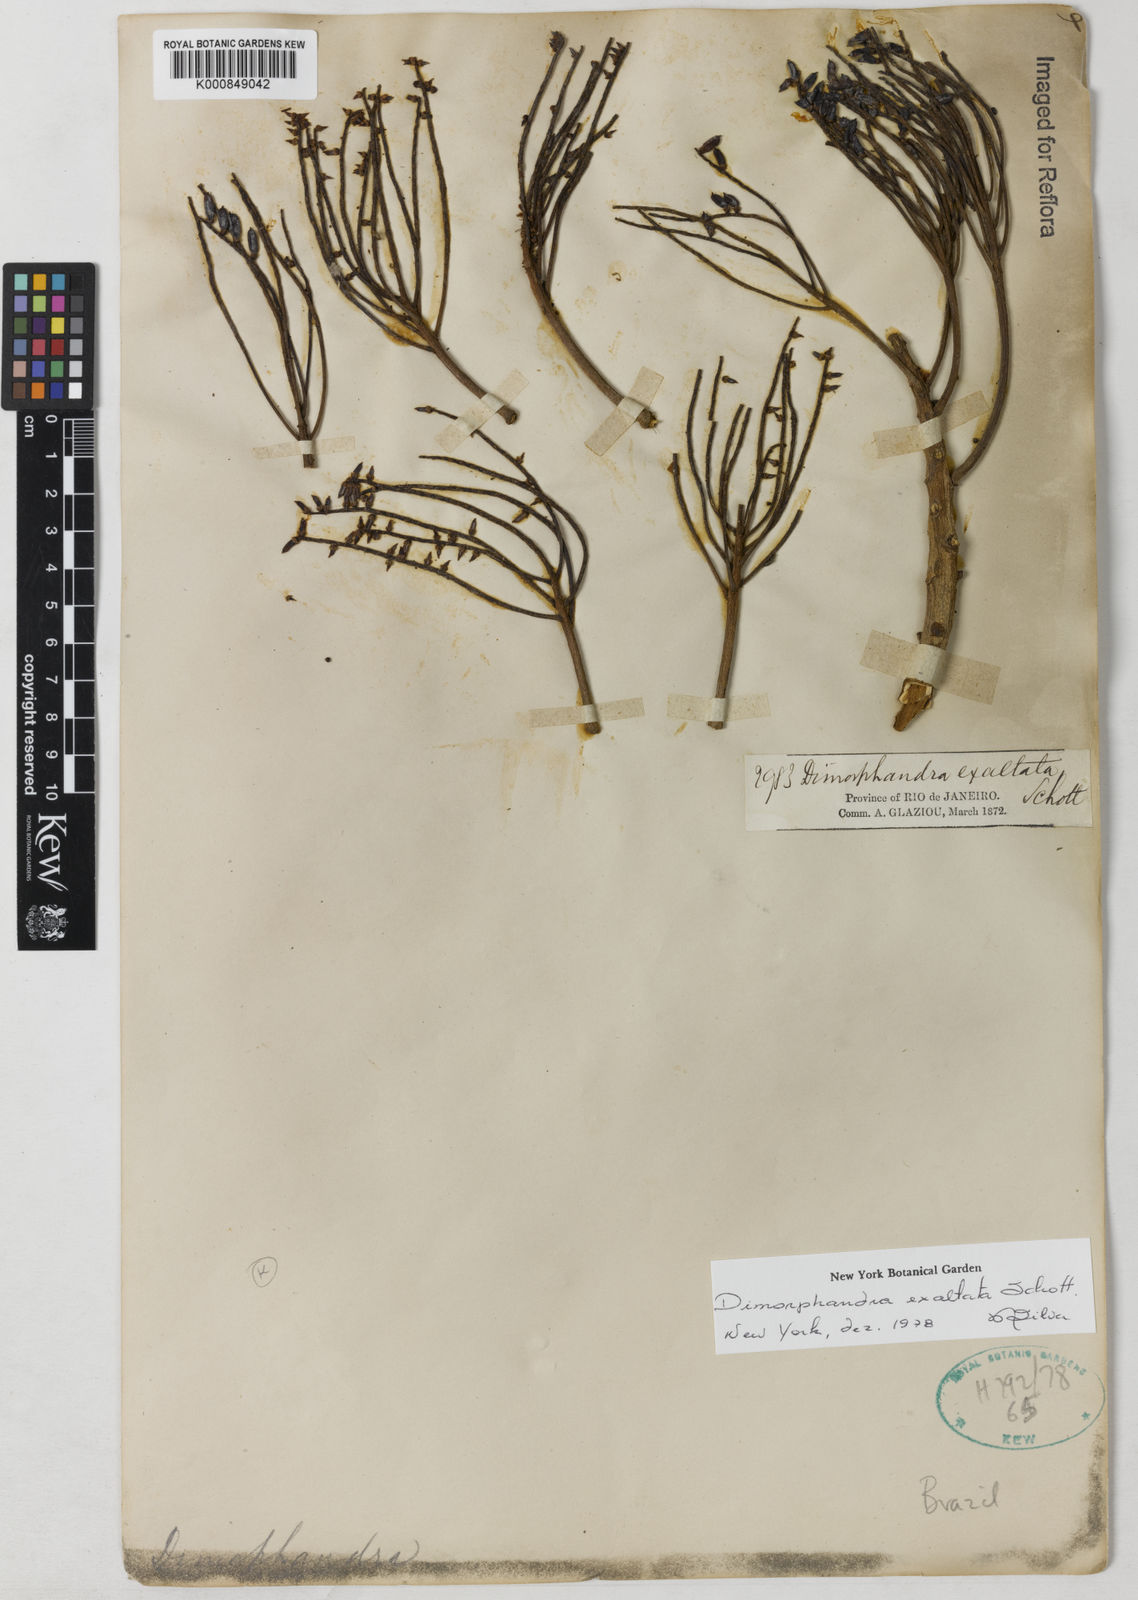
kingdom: Plantae
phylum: Tracheophyta
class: Magnoliopsida
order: Fabales
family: Fabaceae
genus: Dimorphandra
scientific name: Dimorphandra exaltata
